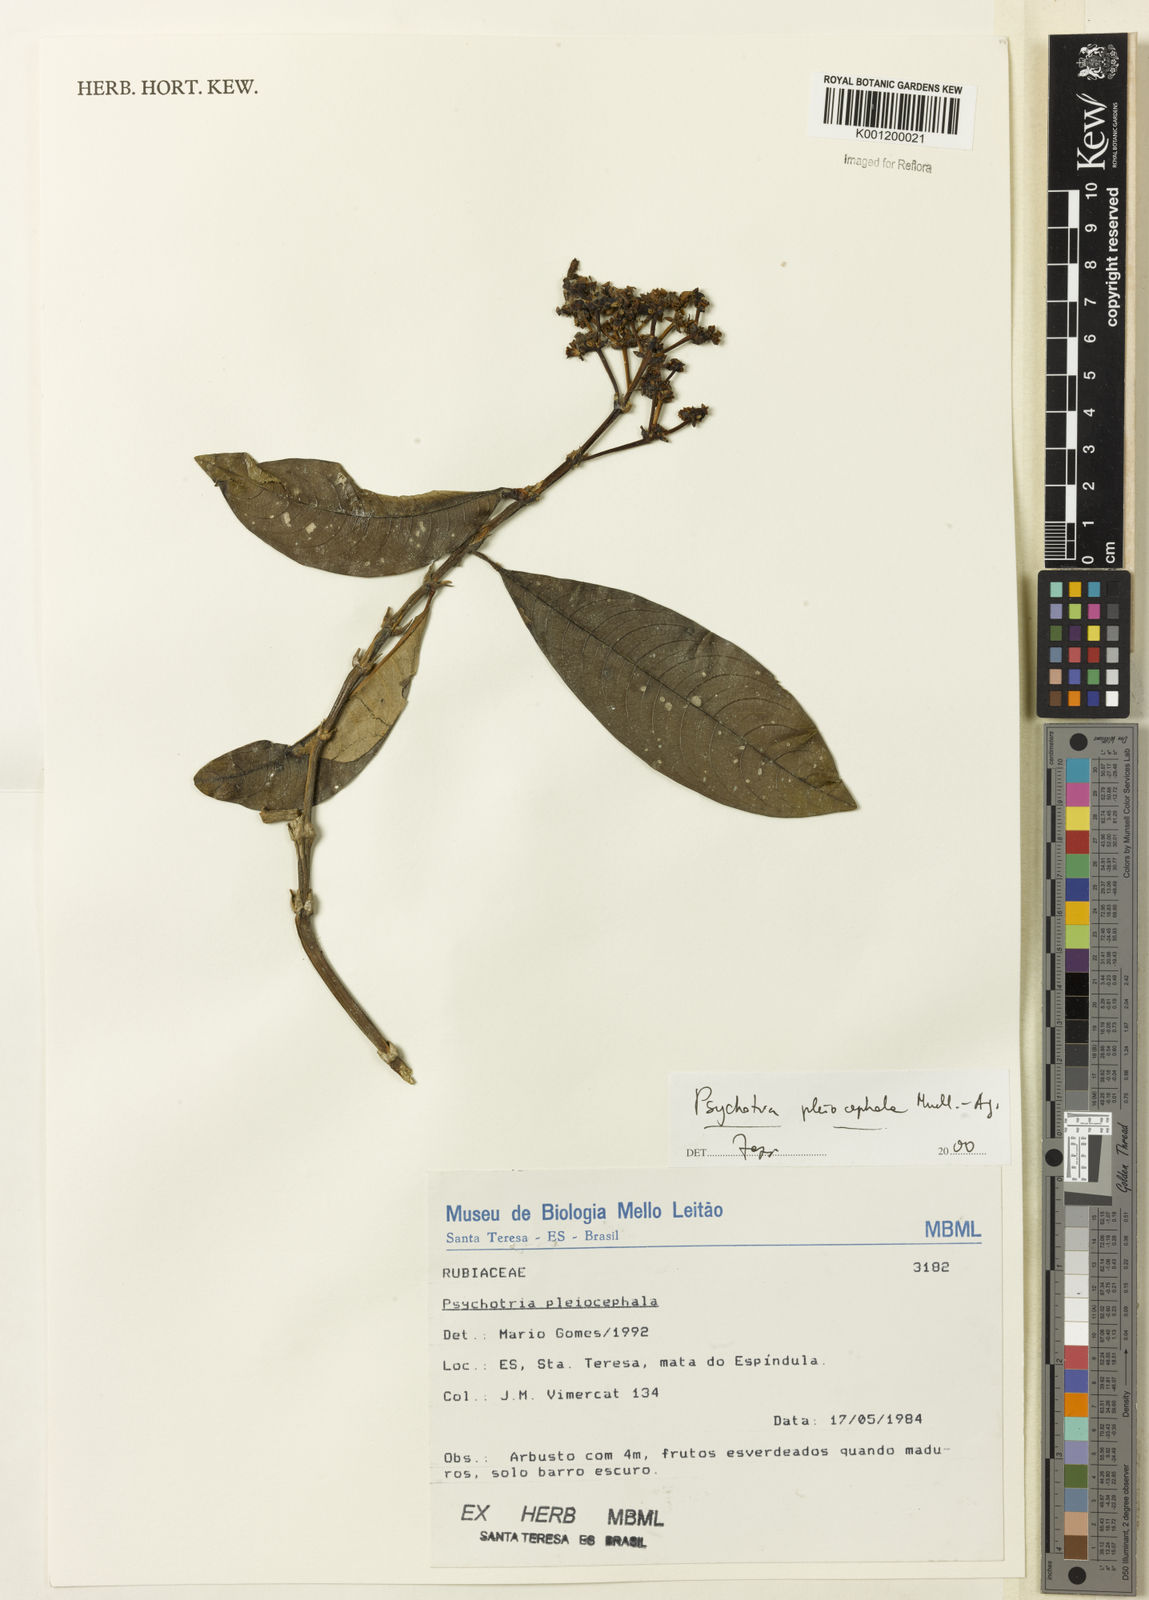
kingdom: Plantae
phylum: Tracheophyta
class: Magnoliopsida
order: Gentianales
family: Rubiaceae
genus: Psychotria
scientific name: Psychotria
